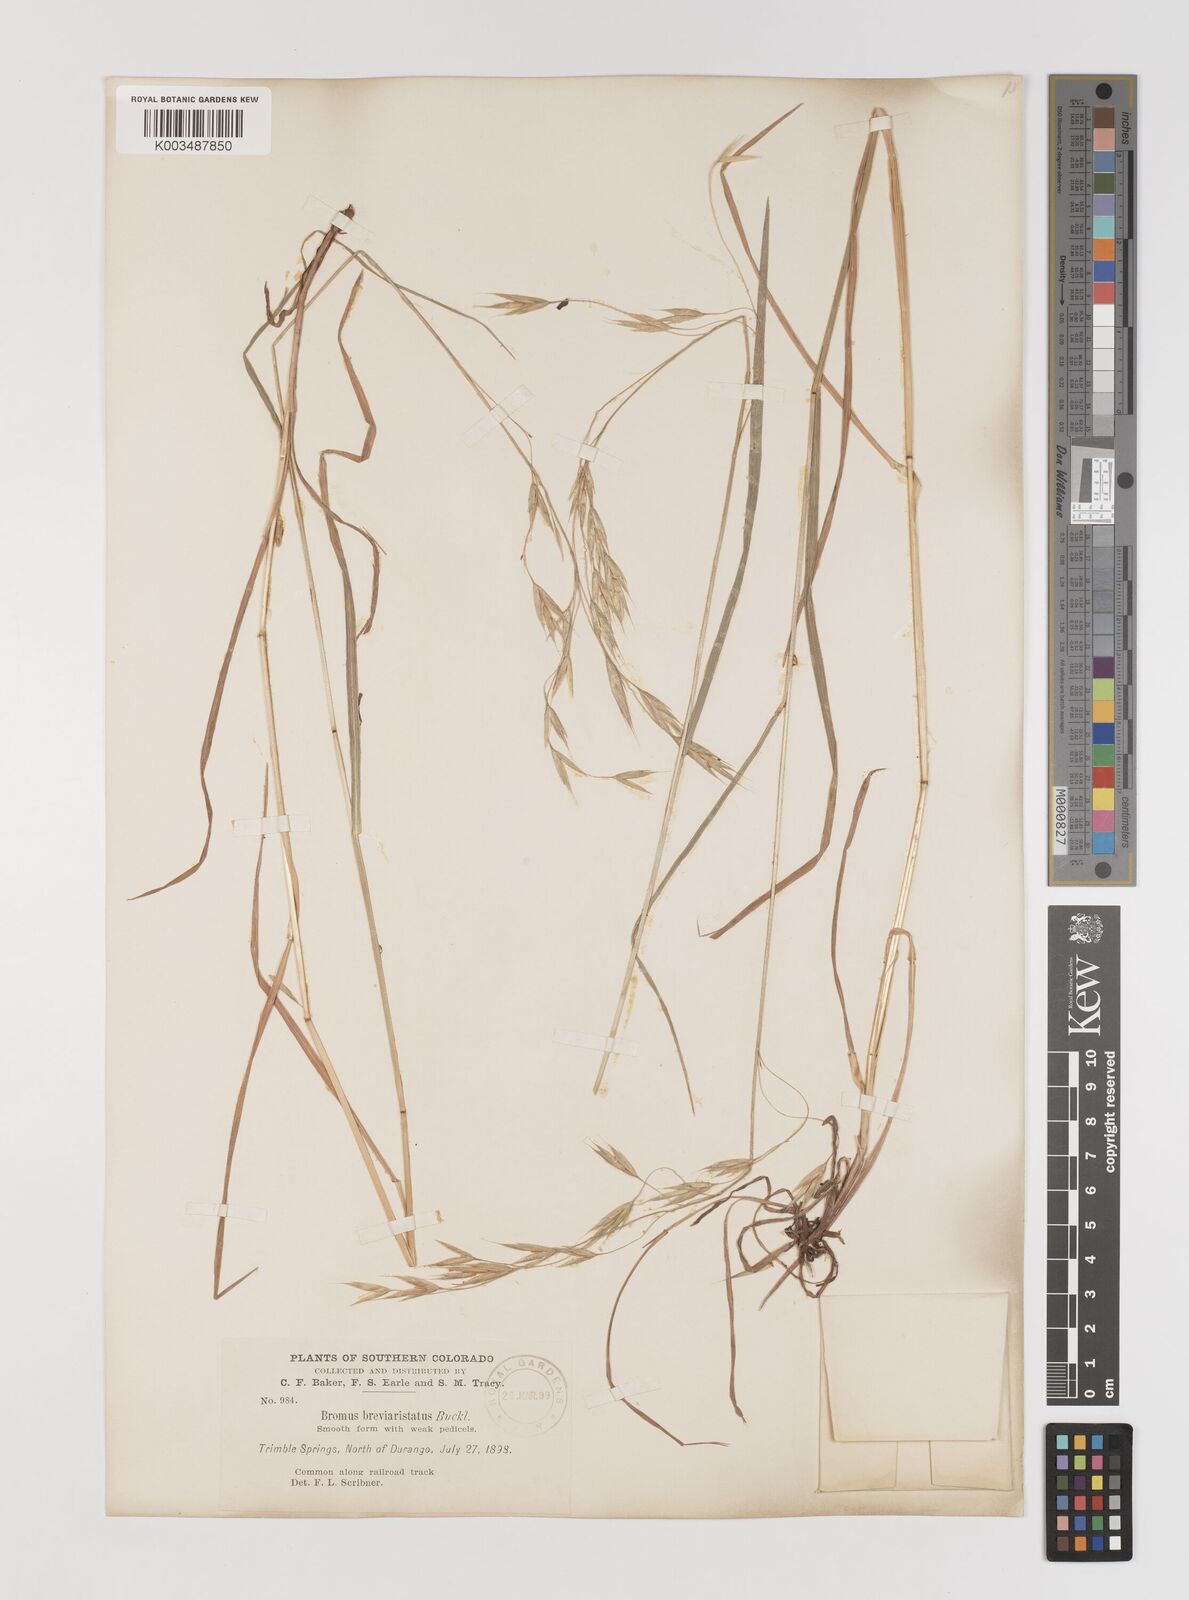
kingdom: Plantae
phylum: Tracheophyta
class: Liliopsida
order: Poales
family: Poaceae
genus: Bromus
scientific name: Bromus catharticus
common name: Rescuegrass
